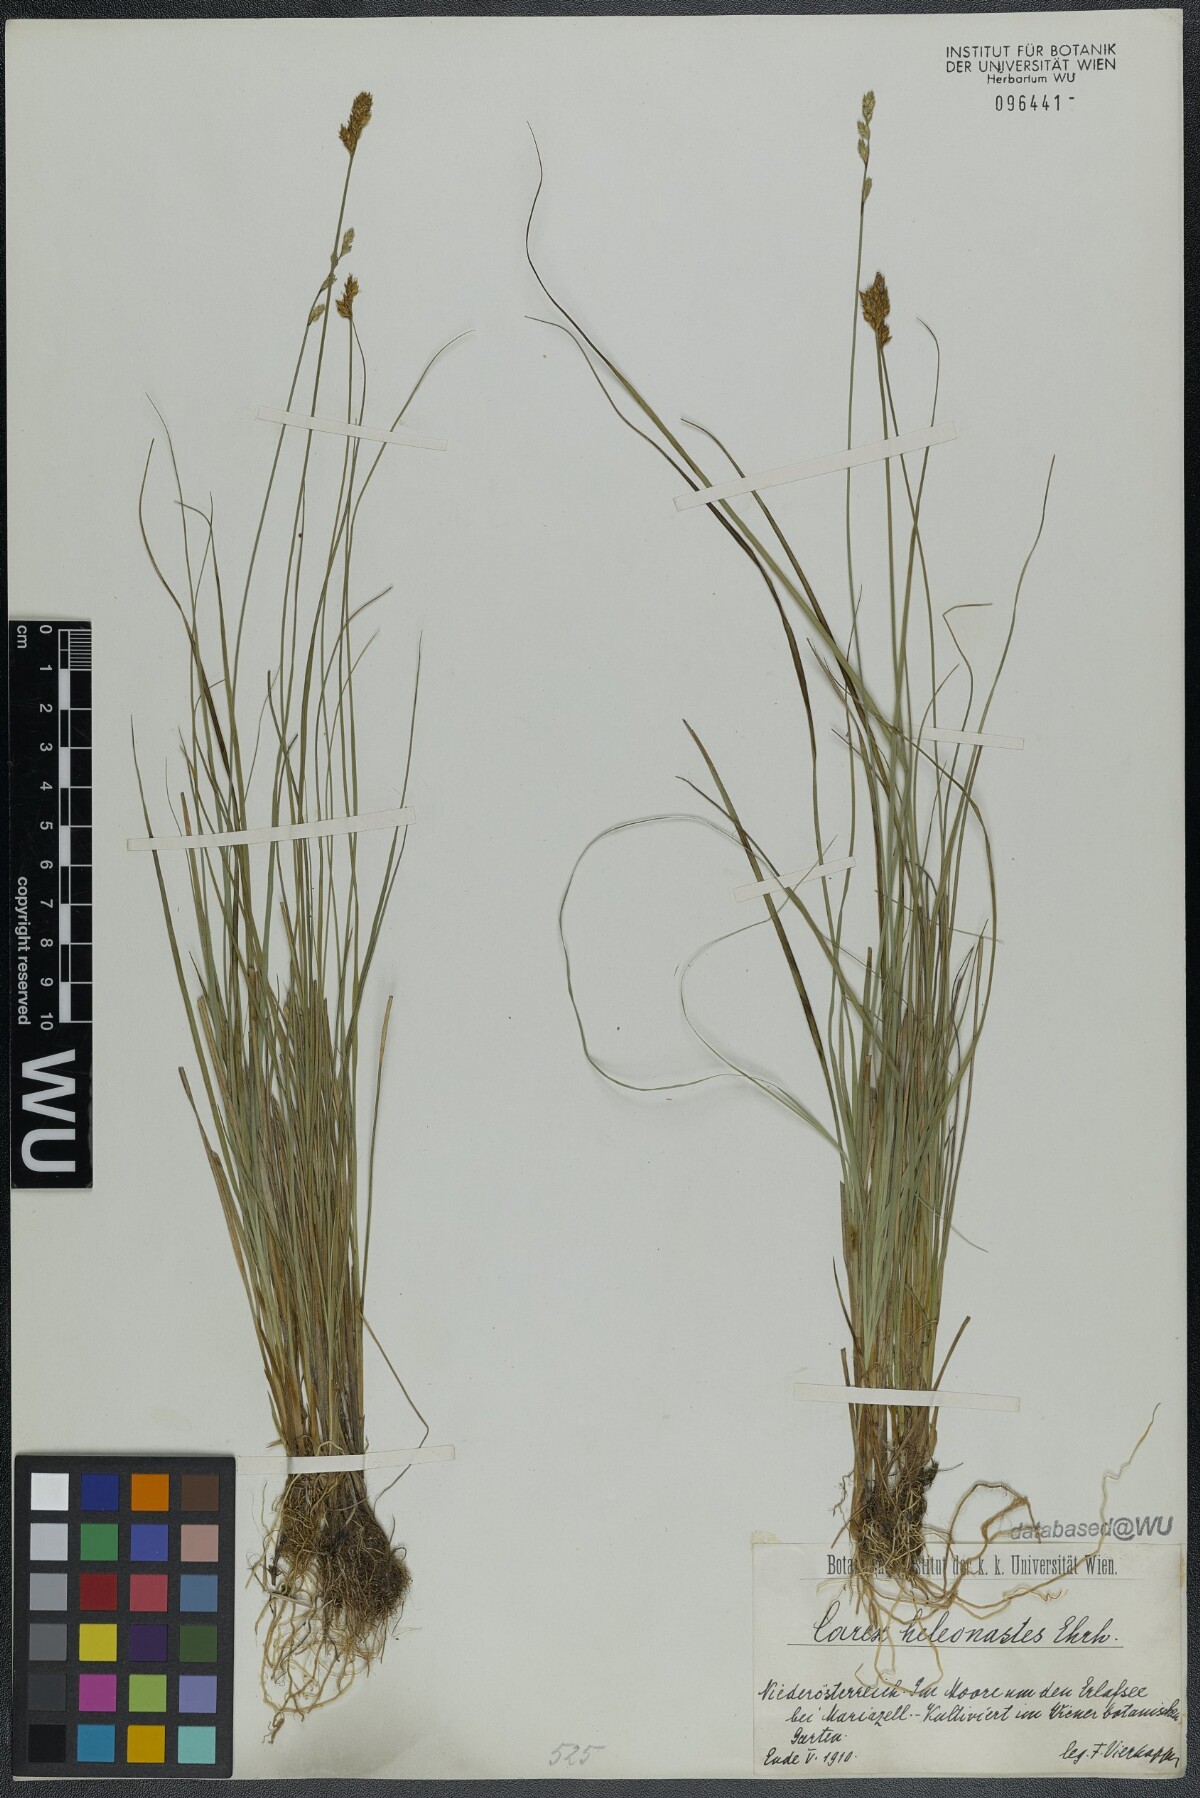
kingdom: Plantae
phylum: Tracheophyta
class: Liliopsida
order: Poales
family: Cyperaceae
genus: Carex
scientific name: Carex heleonastes
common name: Hudson bay sedge
